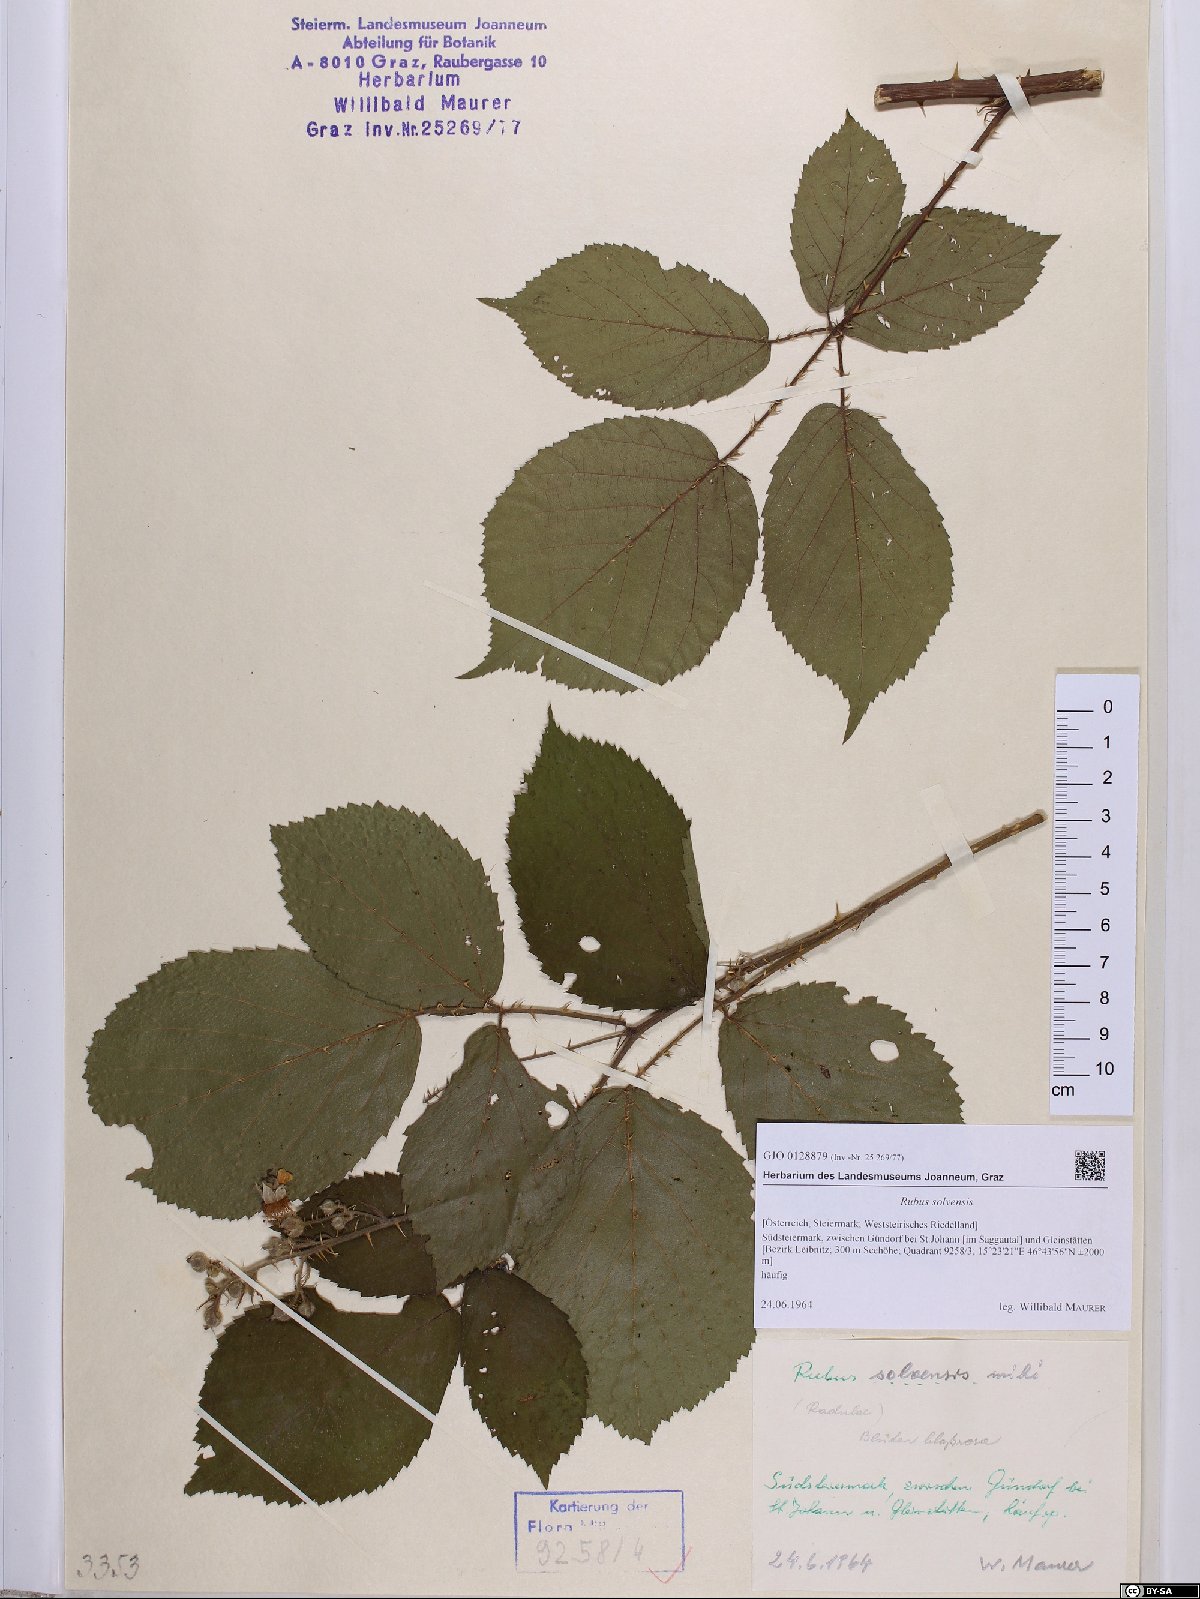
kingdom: Plantae
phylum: Tracheophyta
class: Magnoliopsida
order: Rosales
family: Rosaceae
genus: Rubus
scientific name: Rubus solvensis
